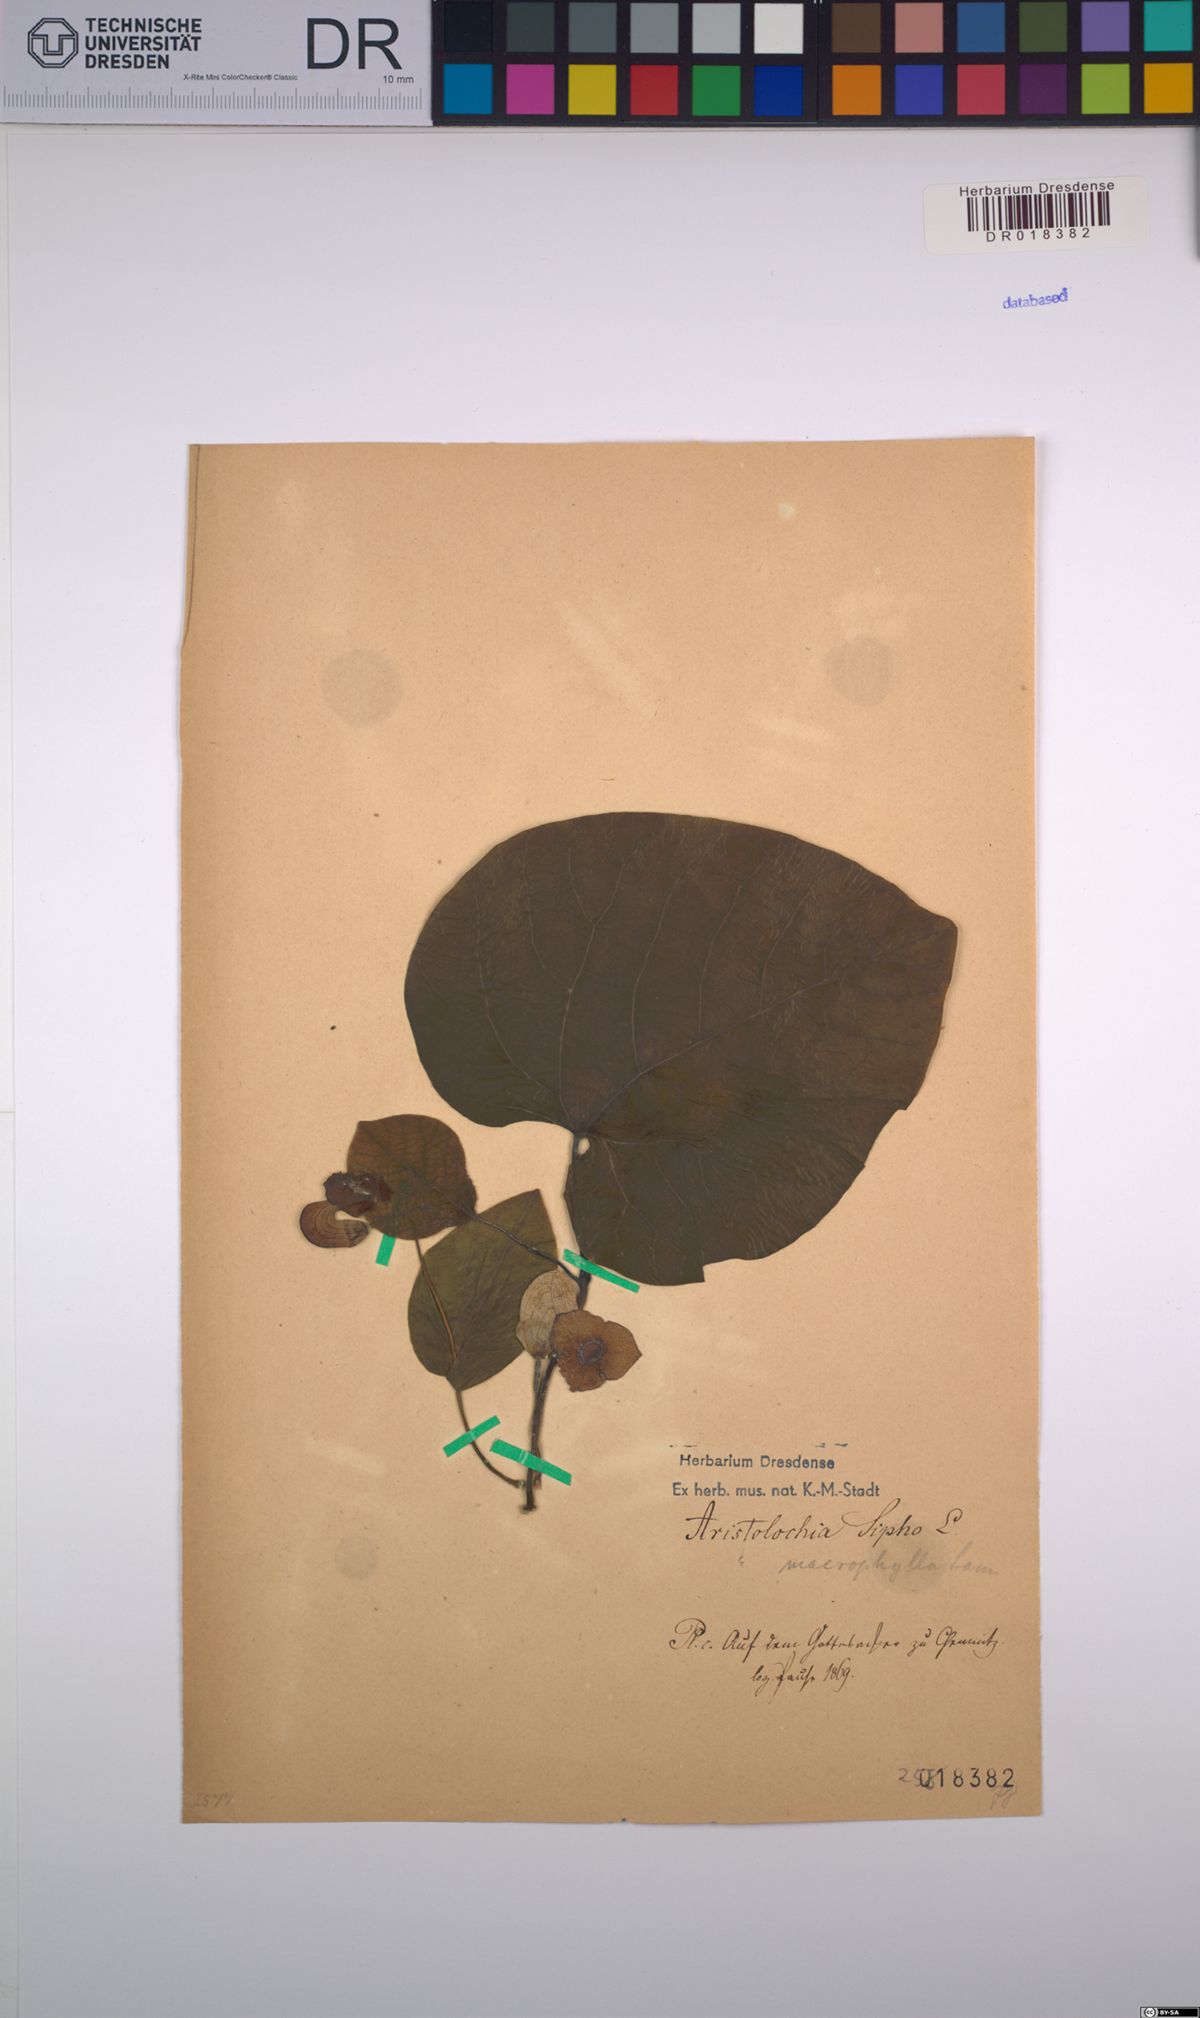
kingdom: Plantae
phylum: Tracheophyta
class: Magnoliopsida
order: Piperales
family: Aristolochiaceae
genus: Isotrema
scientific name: Isotrema macrophyllum
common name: Dutchman's-pipe
